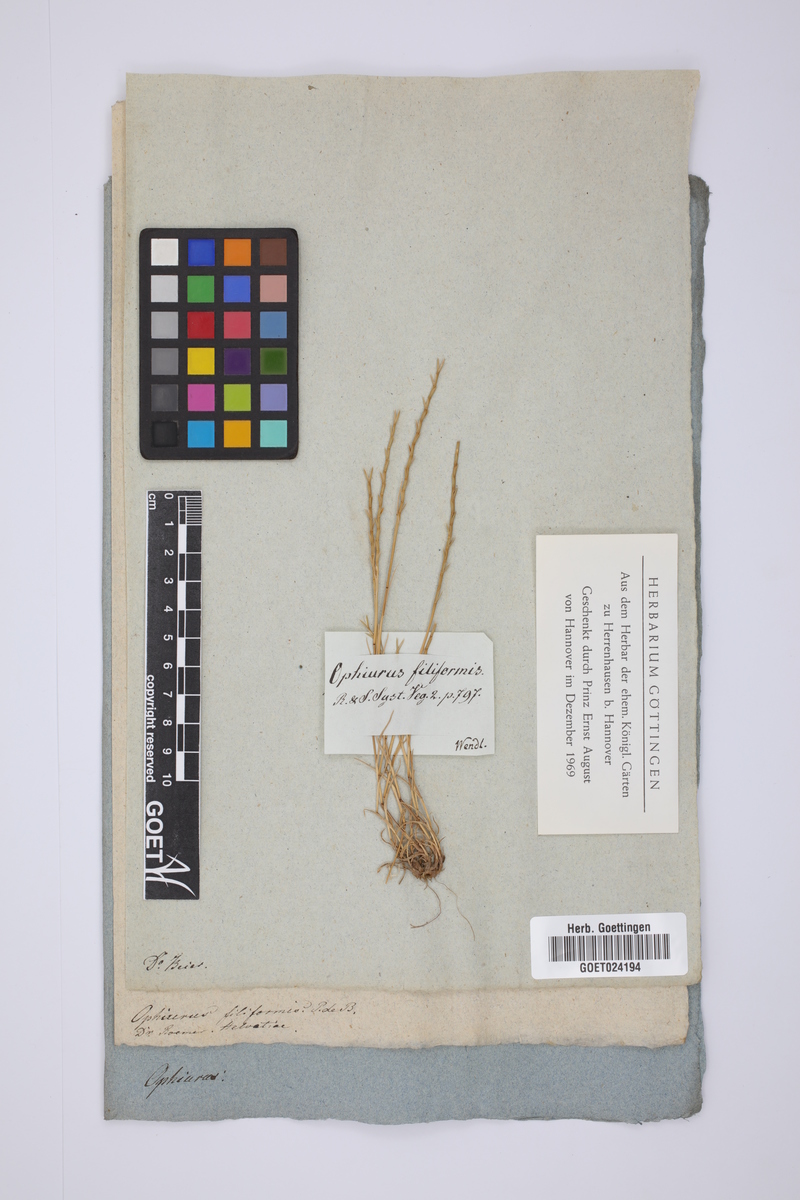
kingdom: Plantae
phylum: Tracheophyta
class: Liliopsida
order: Poales
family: Poaceae
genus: Parapholis
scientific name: Parapholis filiformis
